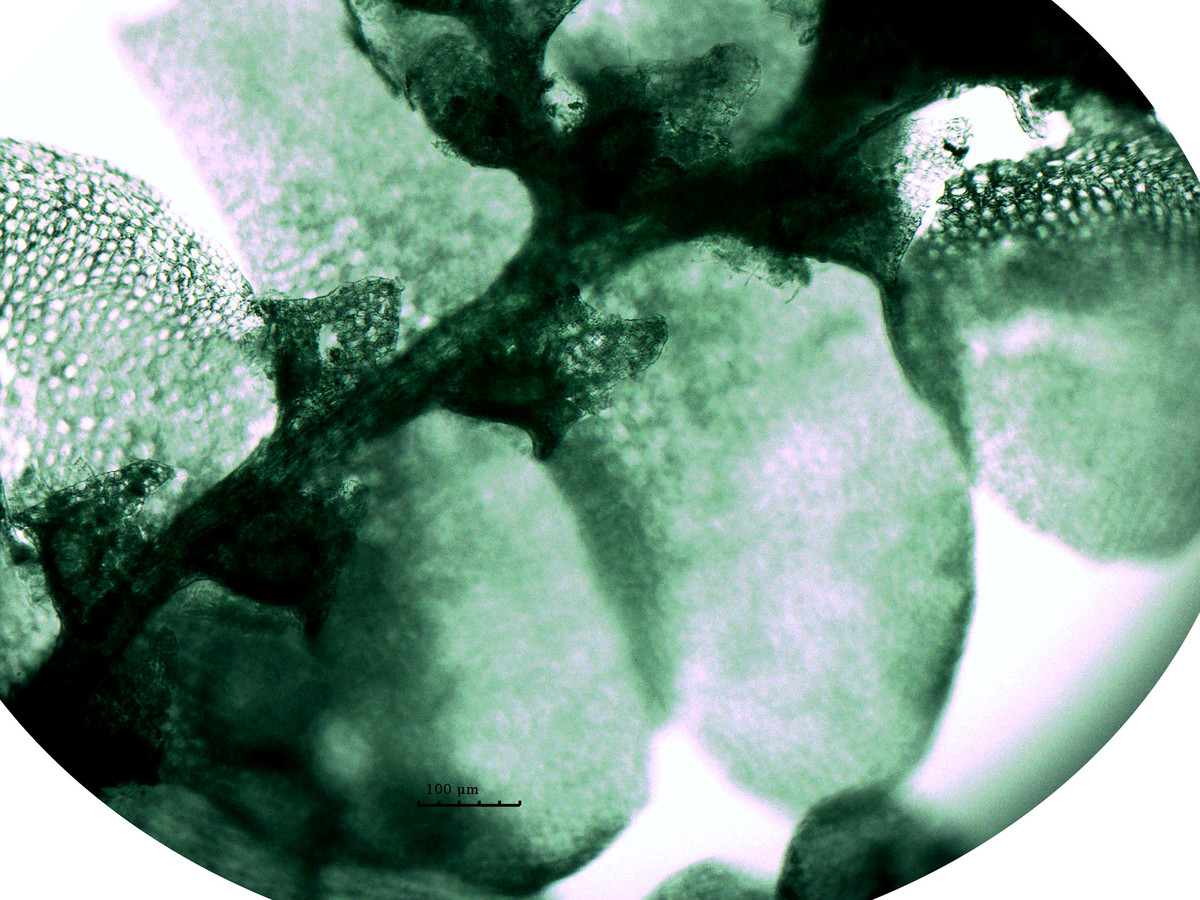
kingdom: Plantae
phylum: Marchantiophyta
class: Jungermanniopsida
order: Porellales
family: Radulaceae
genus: Radula
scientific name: Radula flaccida
